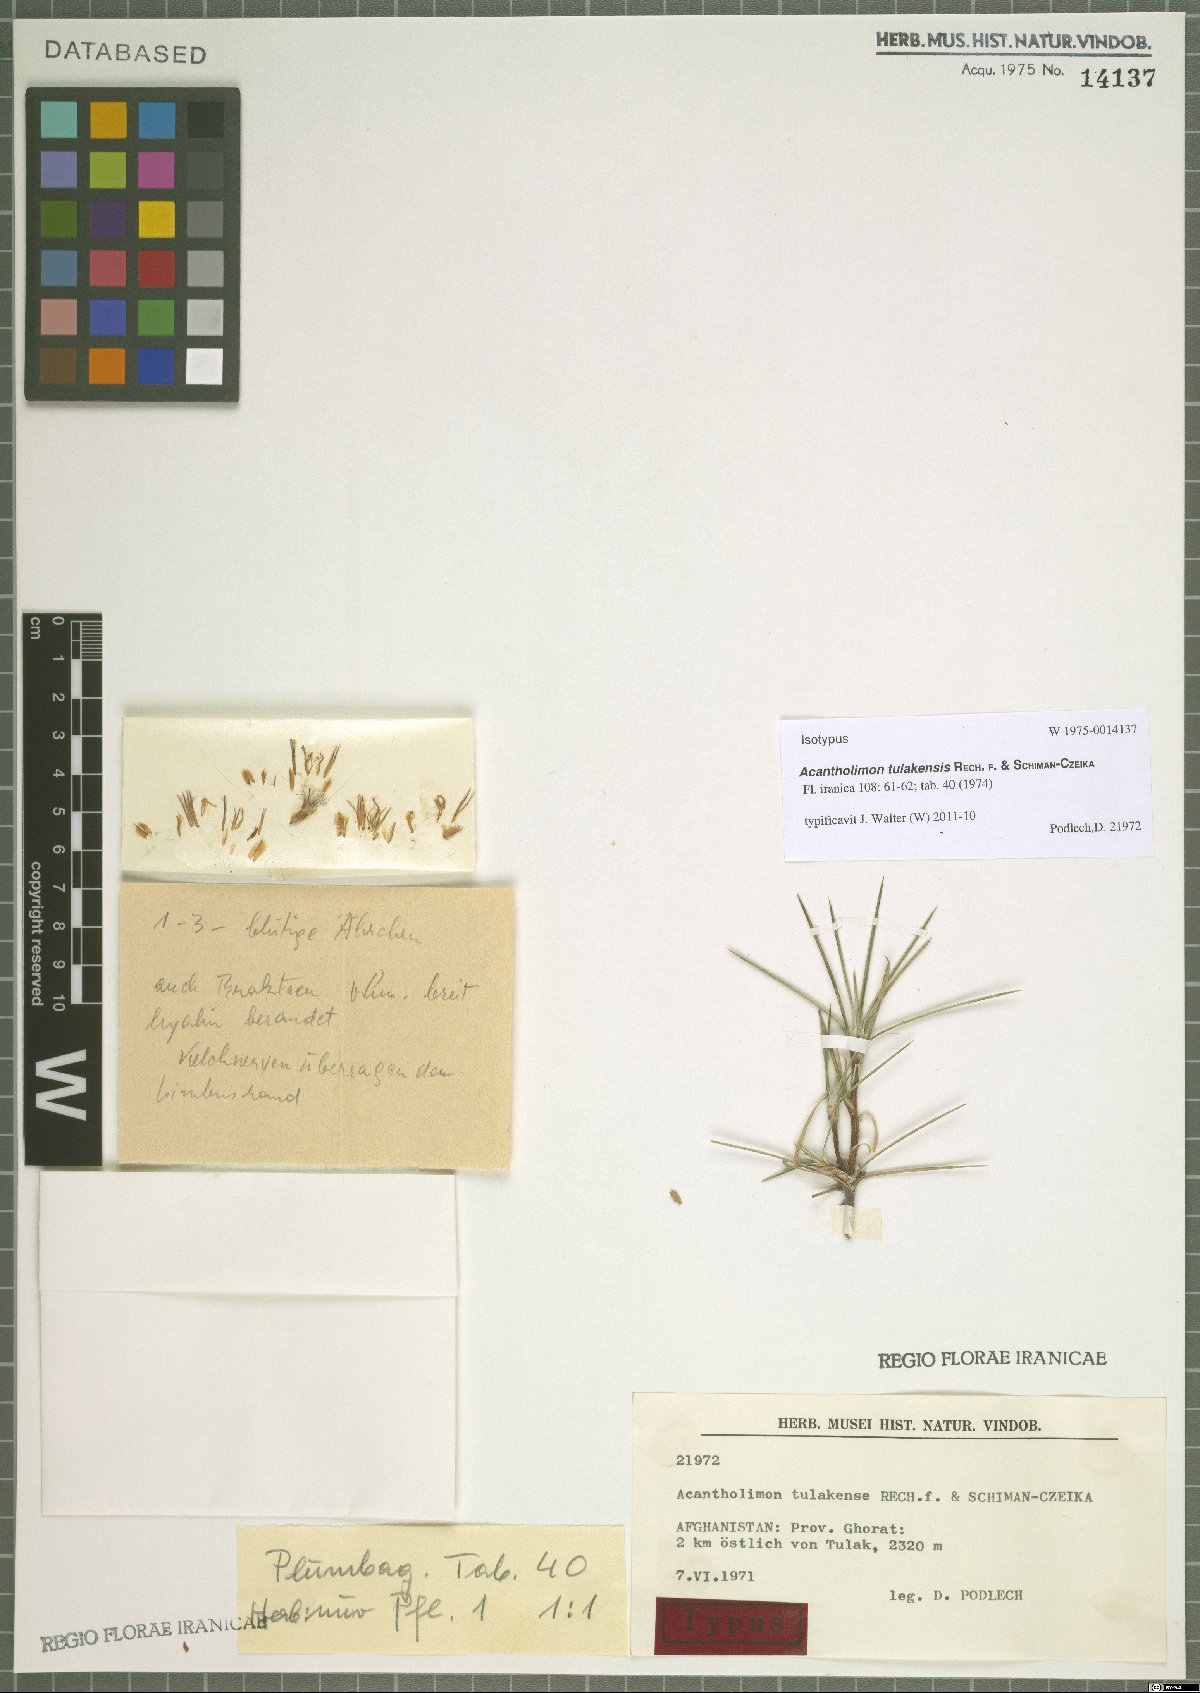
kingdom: Plantae
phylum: Tracheophyta
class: Magnoliopsida
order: Caryophyllales
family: Plumbaginaceae
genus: Acantholimon
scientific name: Acantholimon tulakensis
